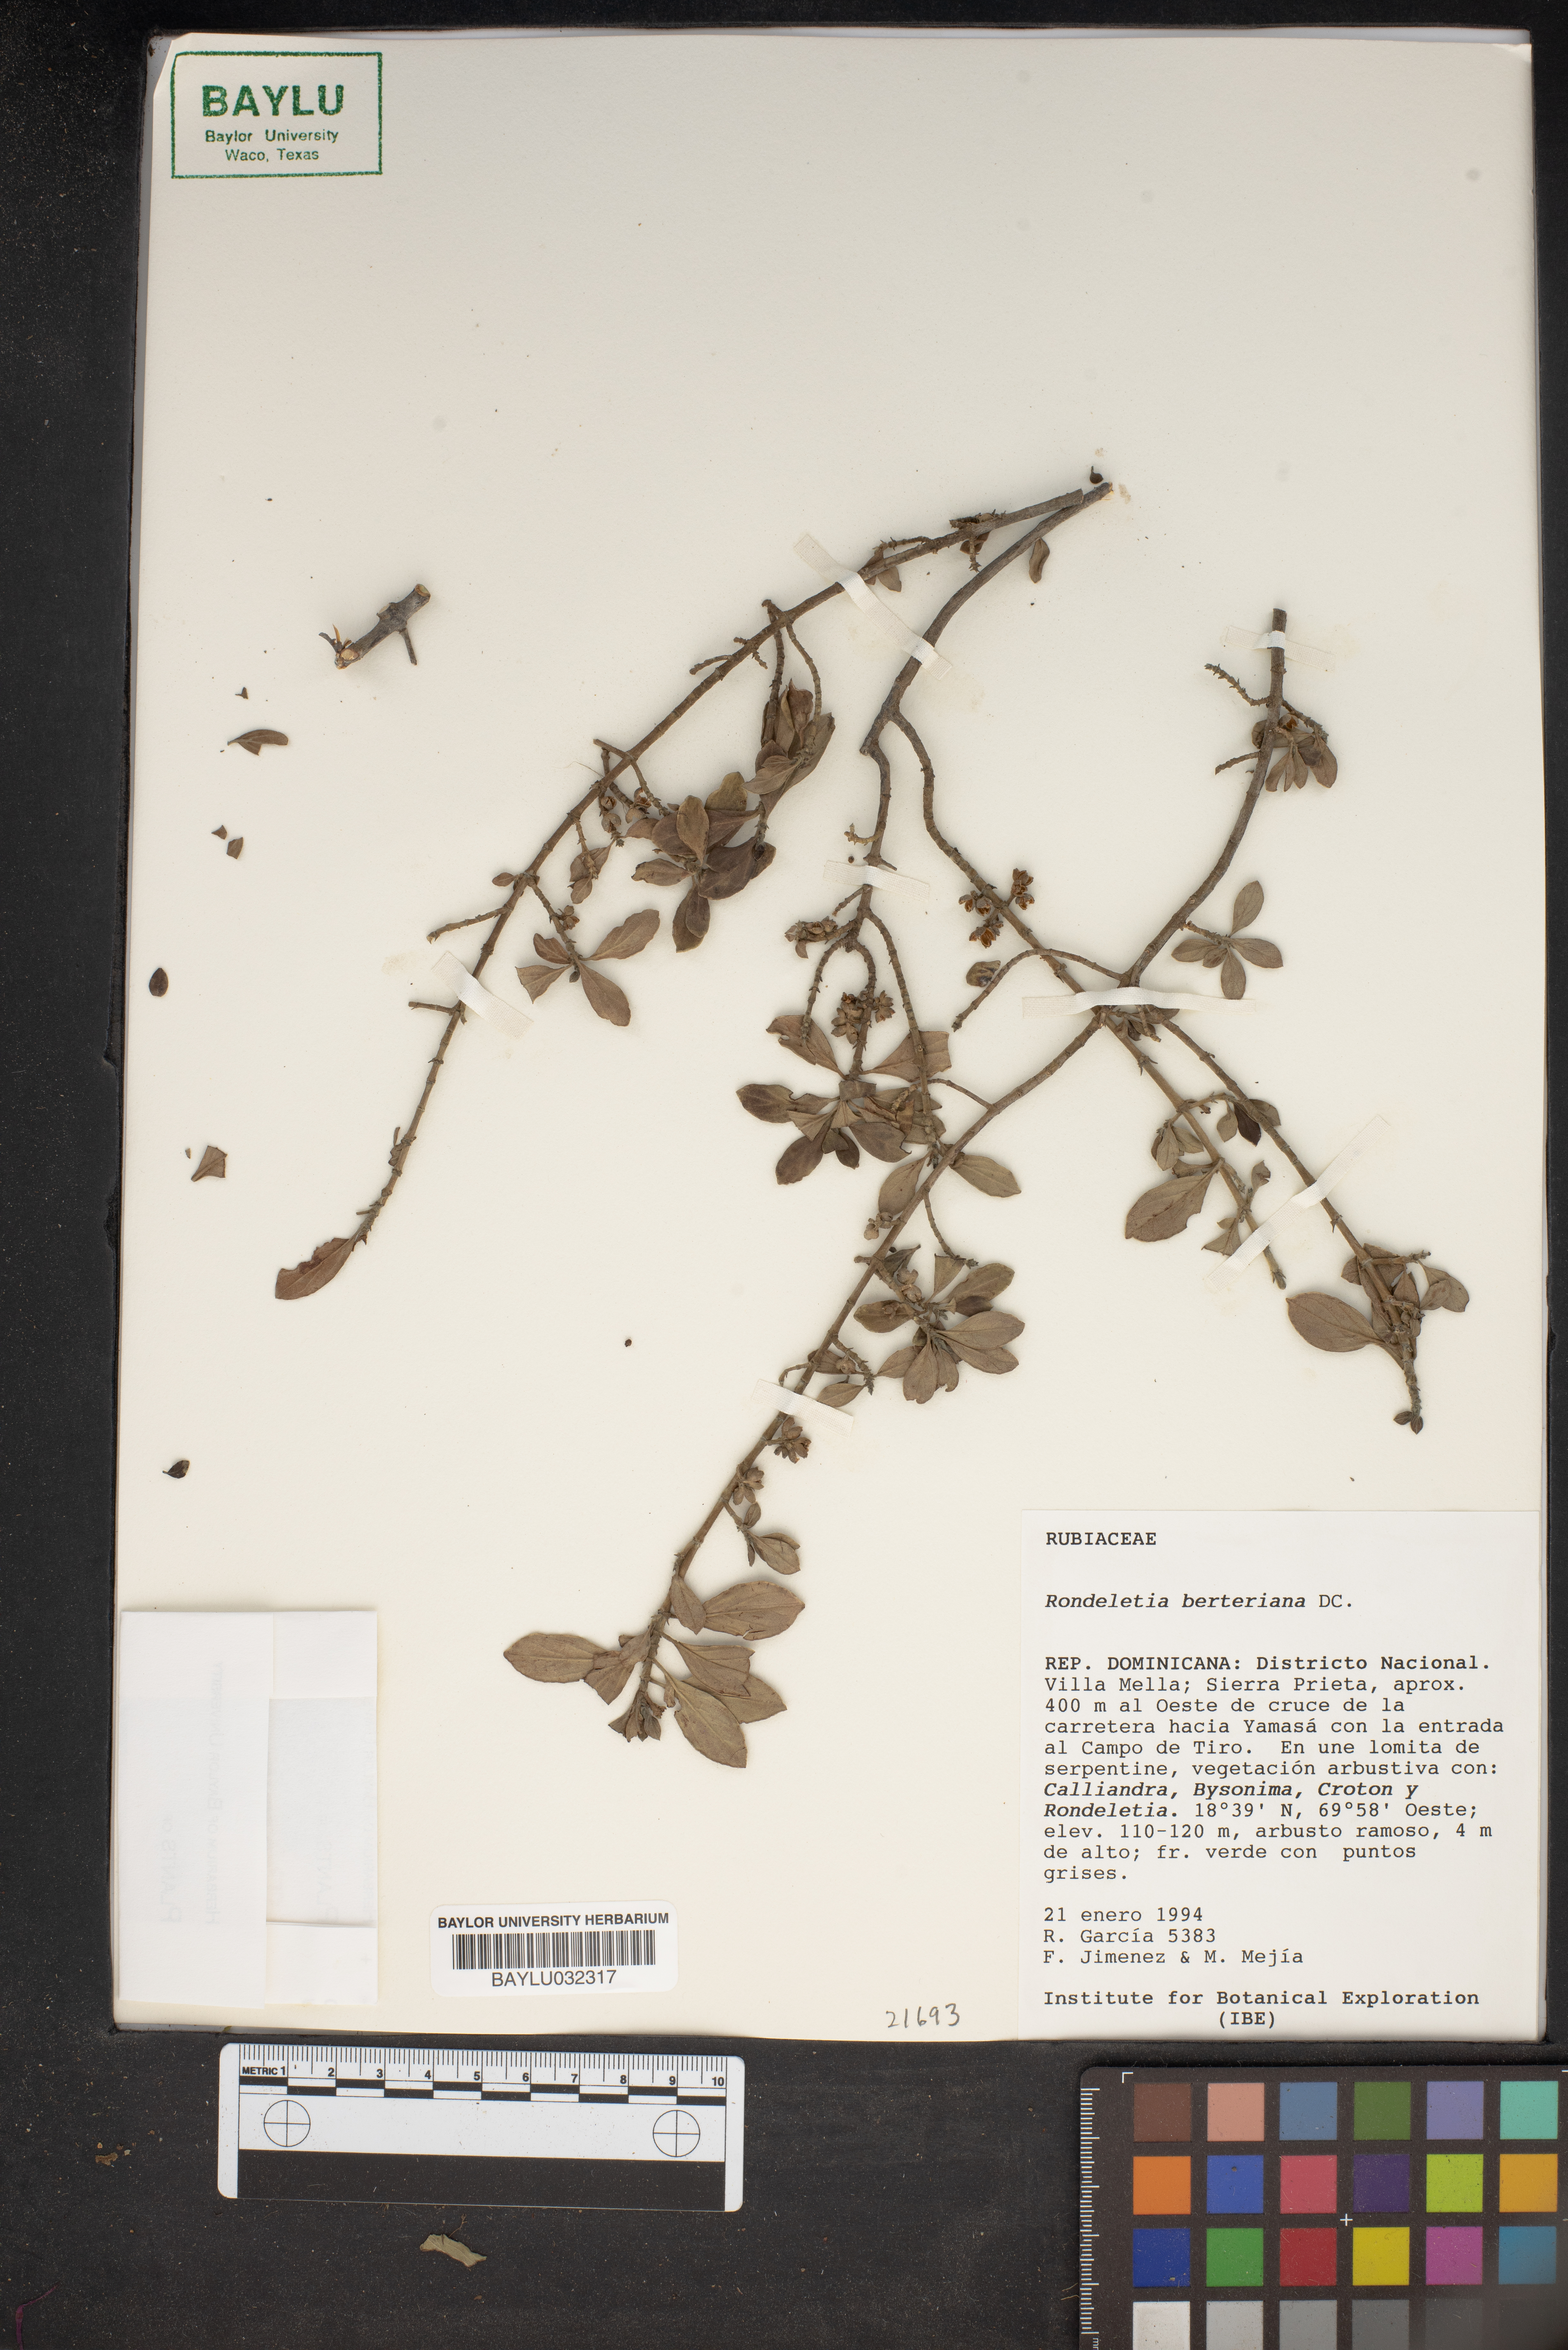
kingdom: Plantae
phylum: Tracheophyta
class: Magnoliopsida
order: Gentianales
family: Rubiaceae
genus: Rondeletia
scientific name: Rondeletia berteroana
